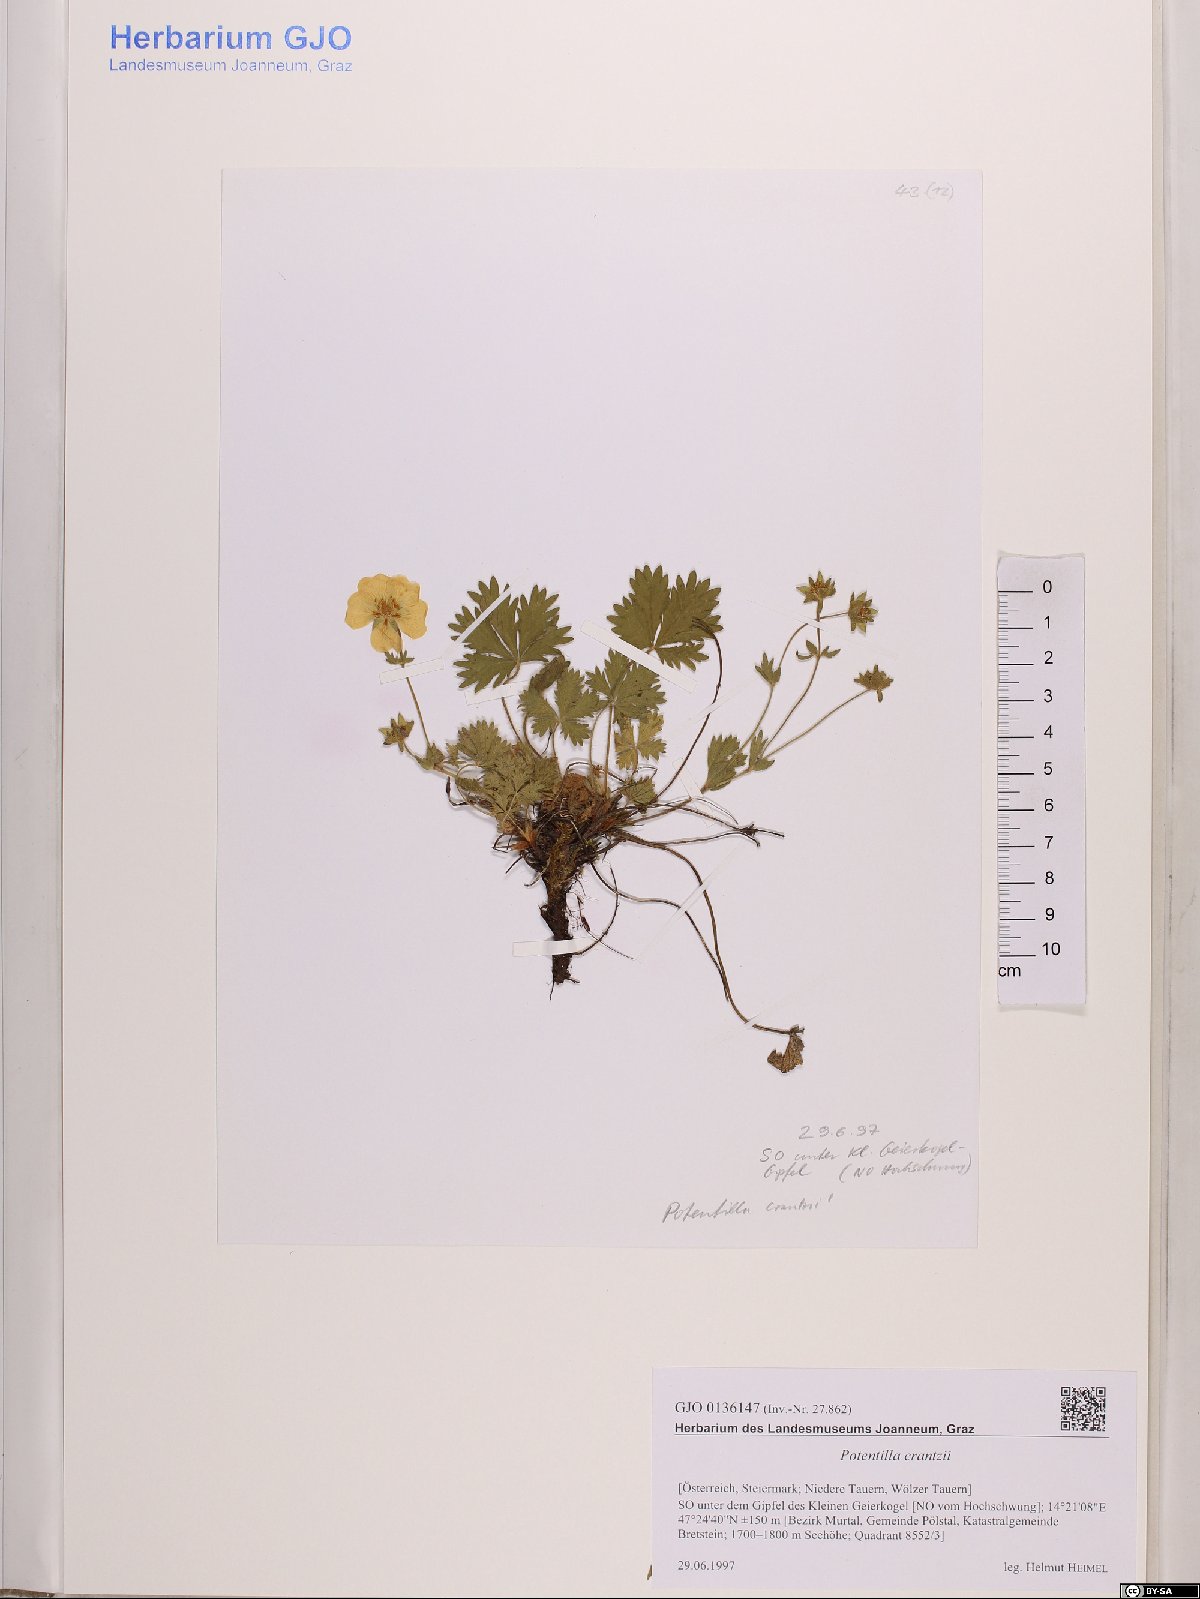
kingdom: Plantae
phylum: Tracheophyta
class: Magnoliopsida
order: Rosales
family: Rosaceae
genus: Potentilla
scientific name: Potentilla crantzii
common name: Alpine cinquefoil
